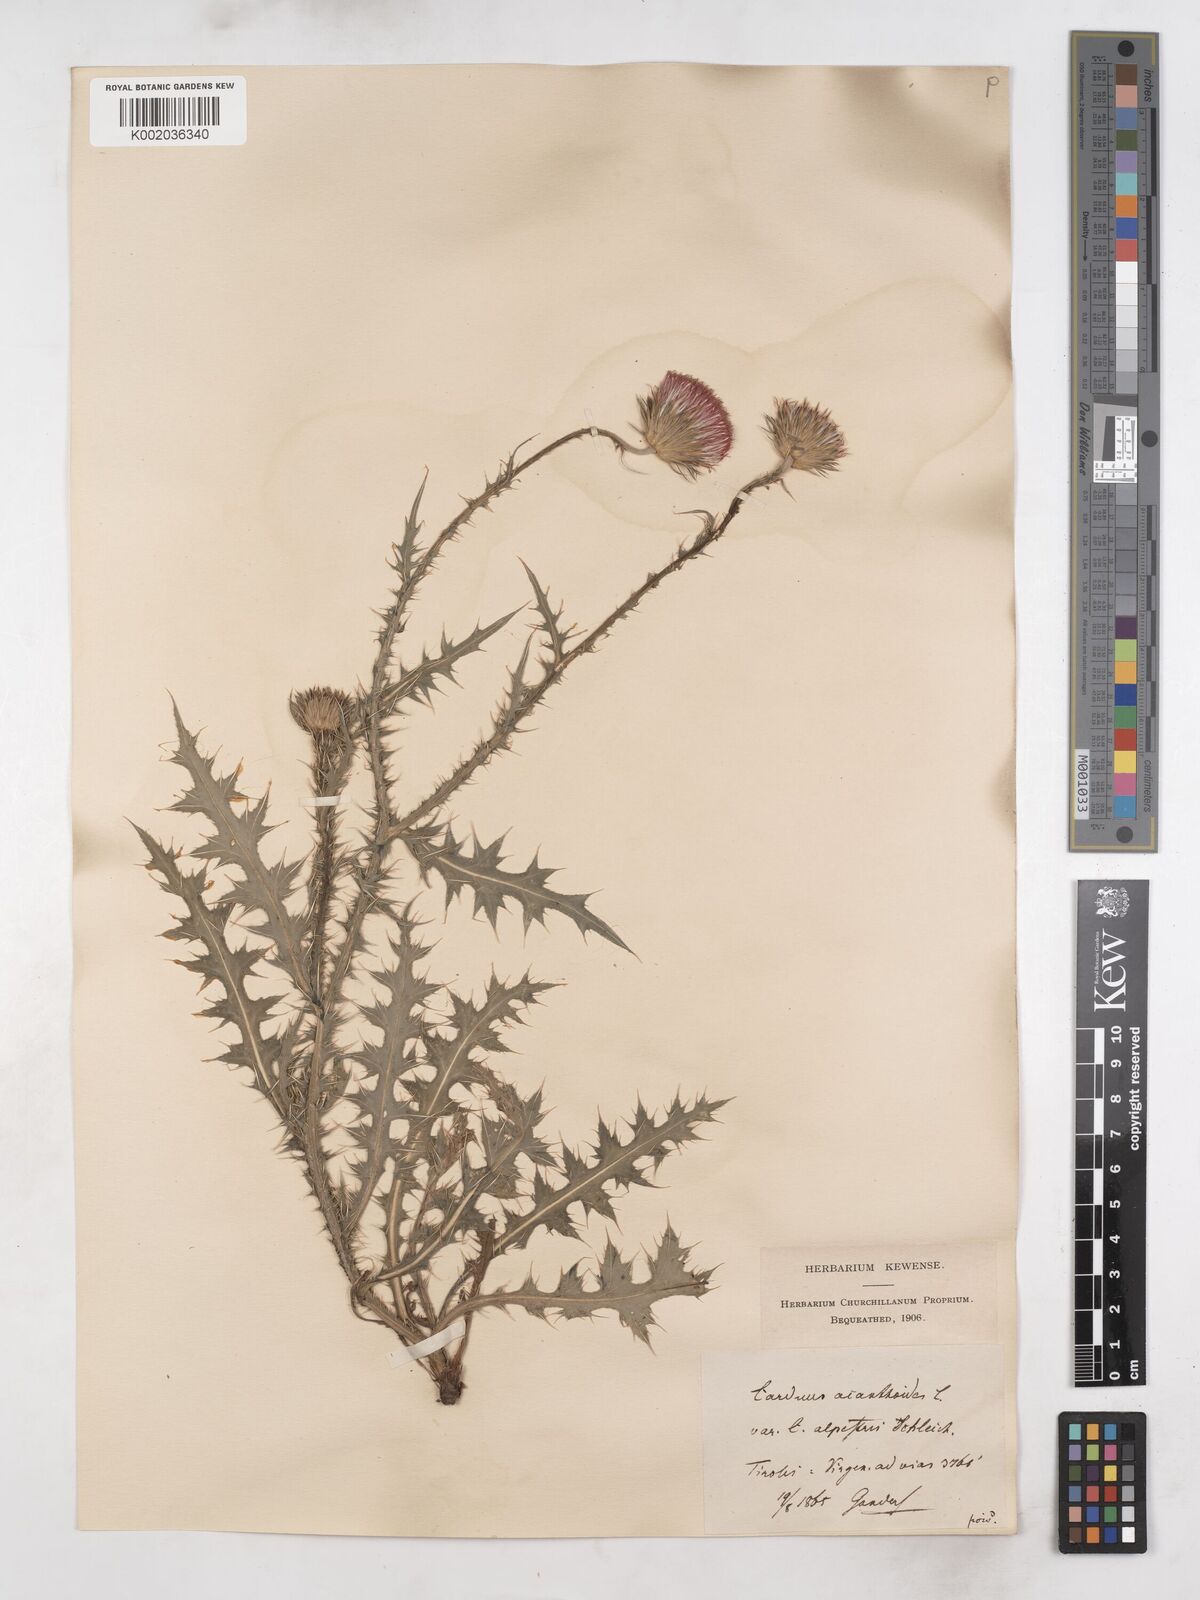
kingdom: Plantae
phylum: Tracheophyta
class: Magnoliopsida
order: Asterales
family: Asteraceae
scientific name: Asteraceae
